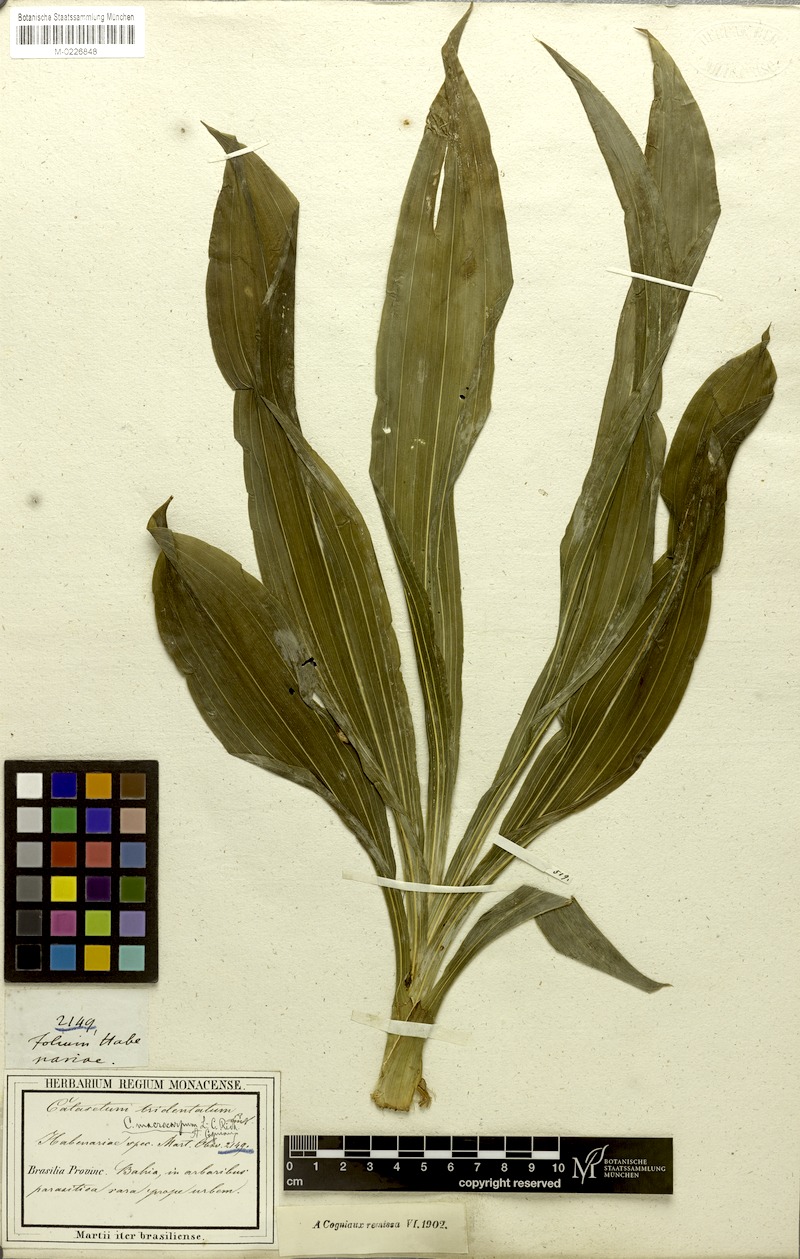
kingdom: Plantae
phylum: Tracheophyta
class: Liliopsida
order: Asparagales
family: Orchidaceae
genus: Catasetum
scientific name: Catasetum macrocarpum
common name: Jumping orchid
